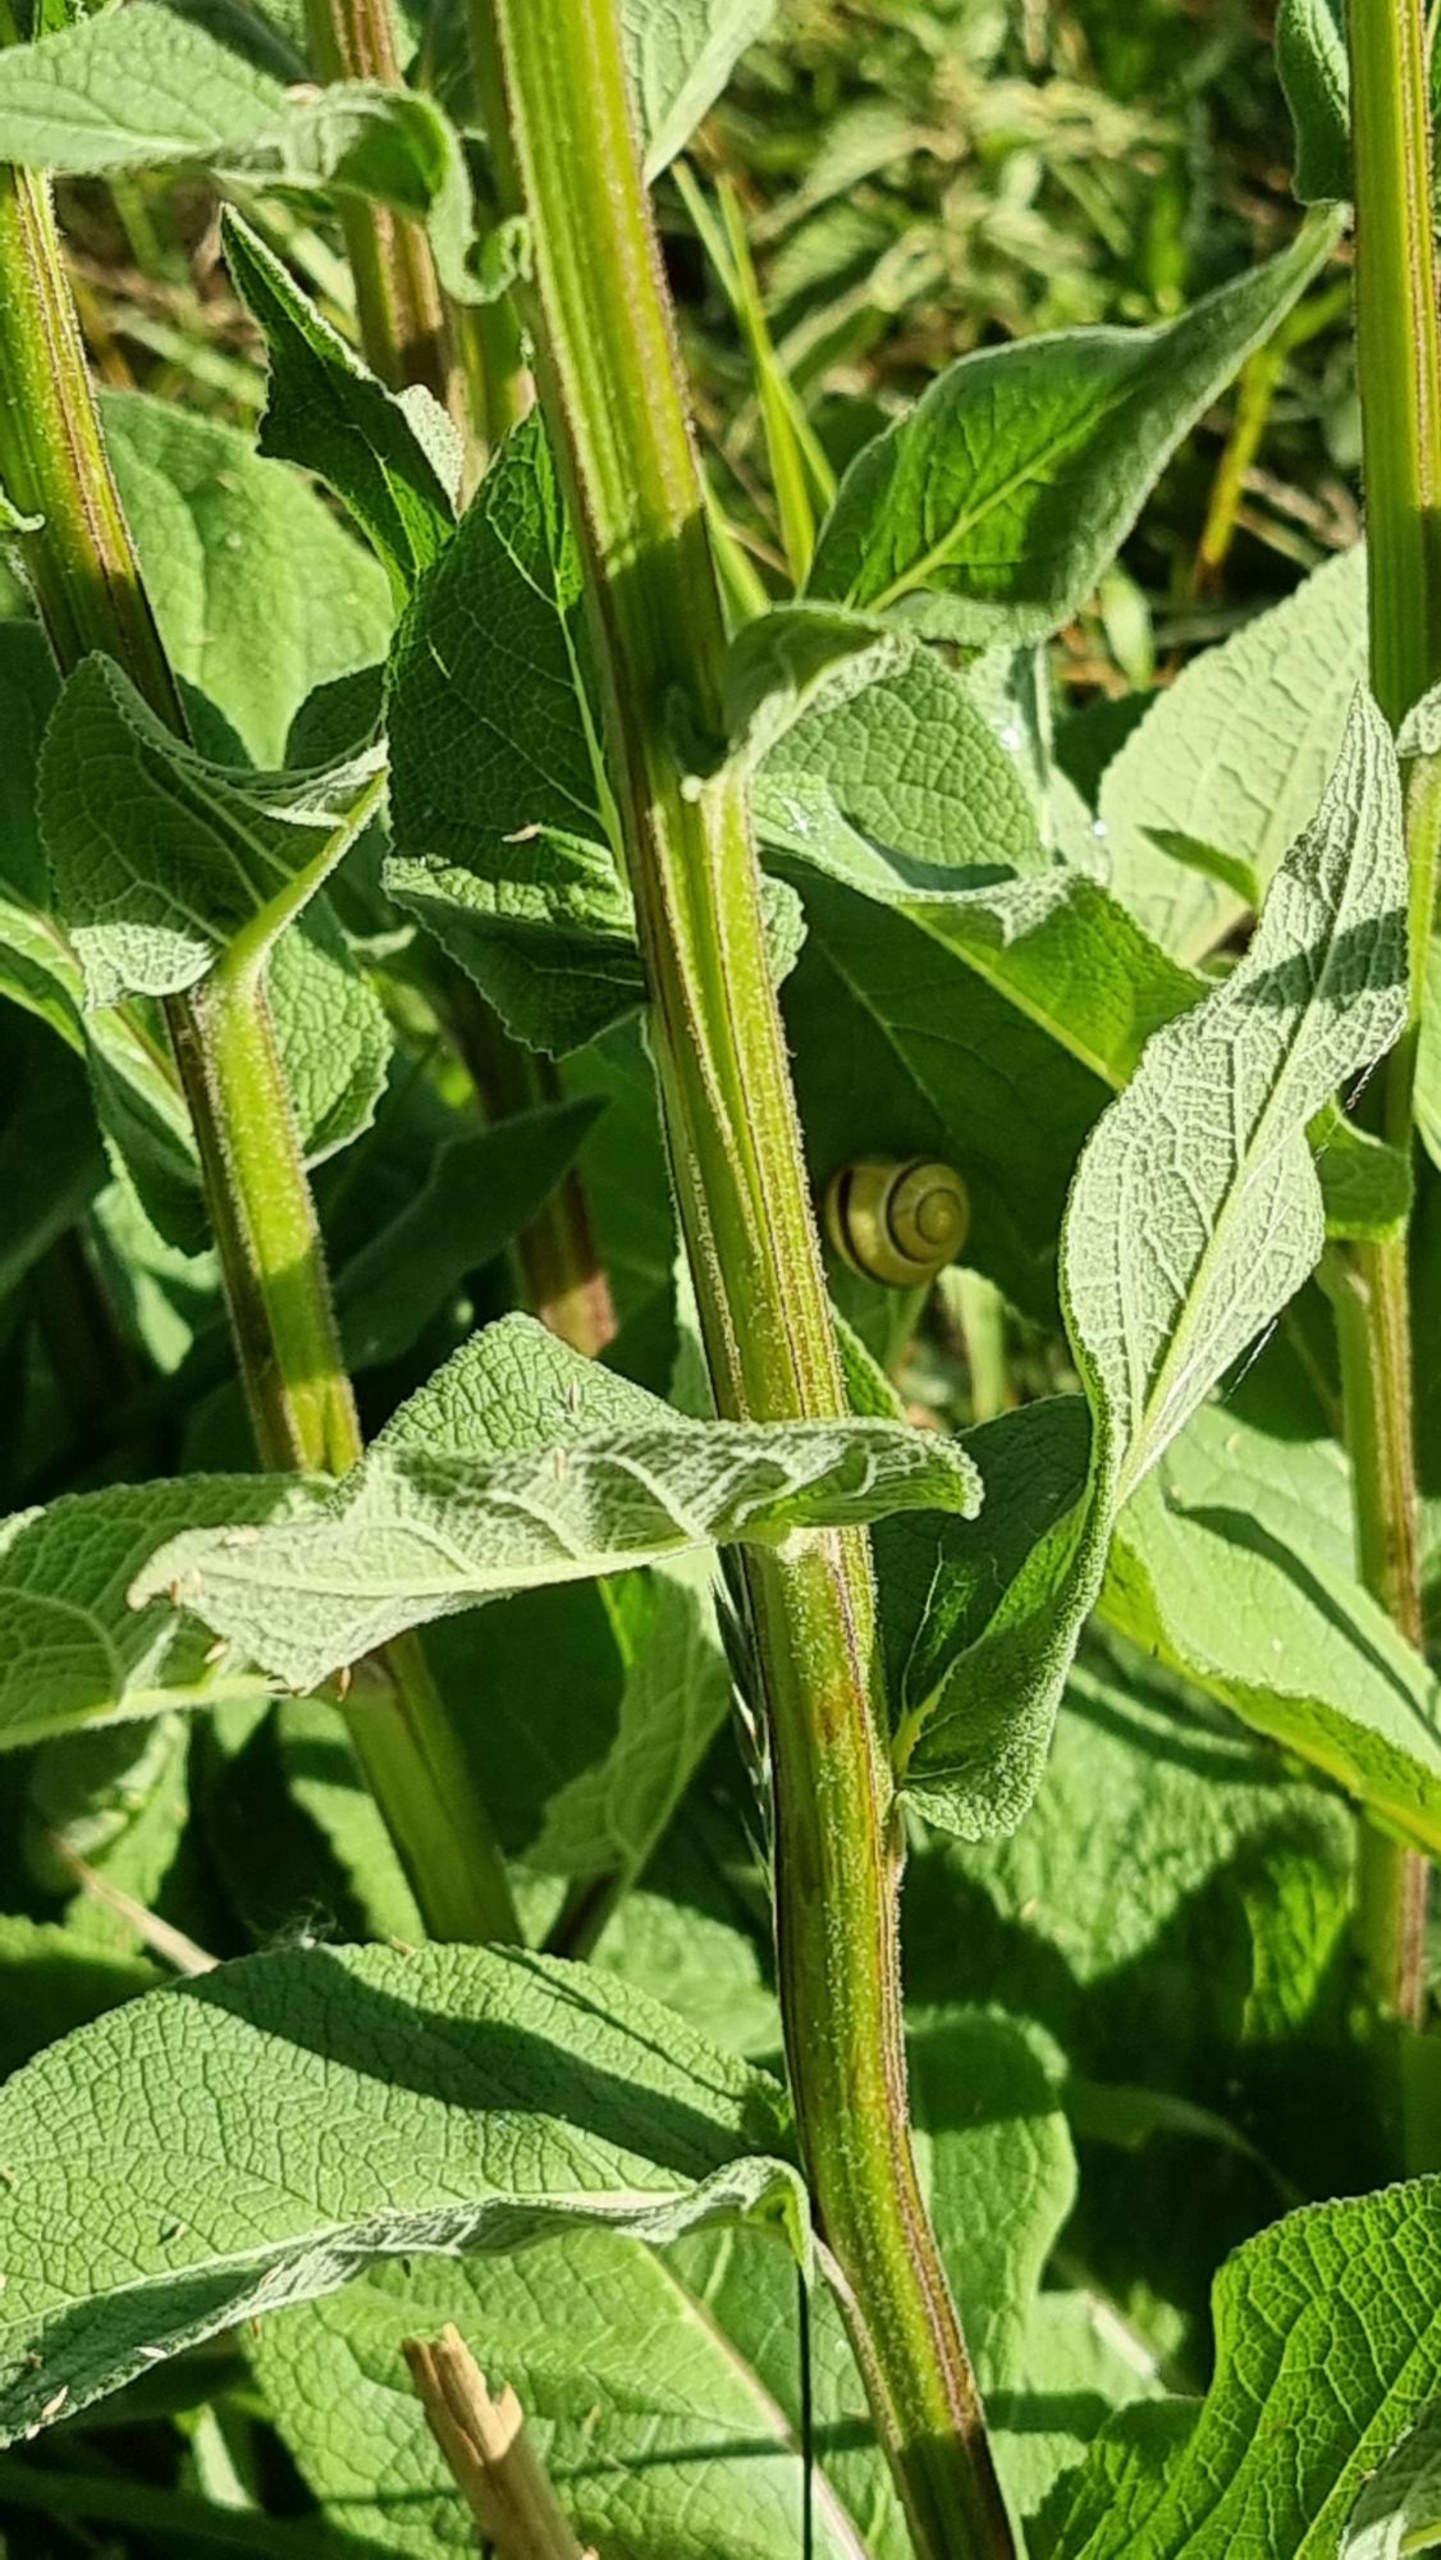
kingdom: Plantae
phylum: Tracheophyta
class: Magnoliopsida
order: Lamiales
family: Scrophulariaceae
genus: Verbascum
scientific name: Verbascum nigrum
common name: Mørk kongelys
